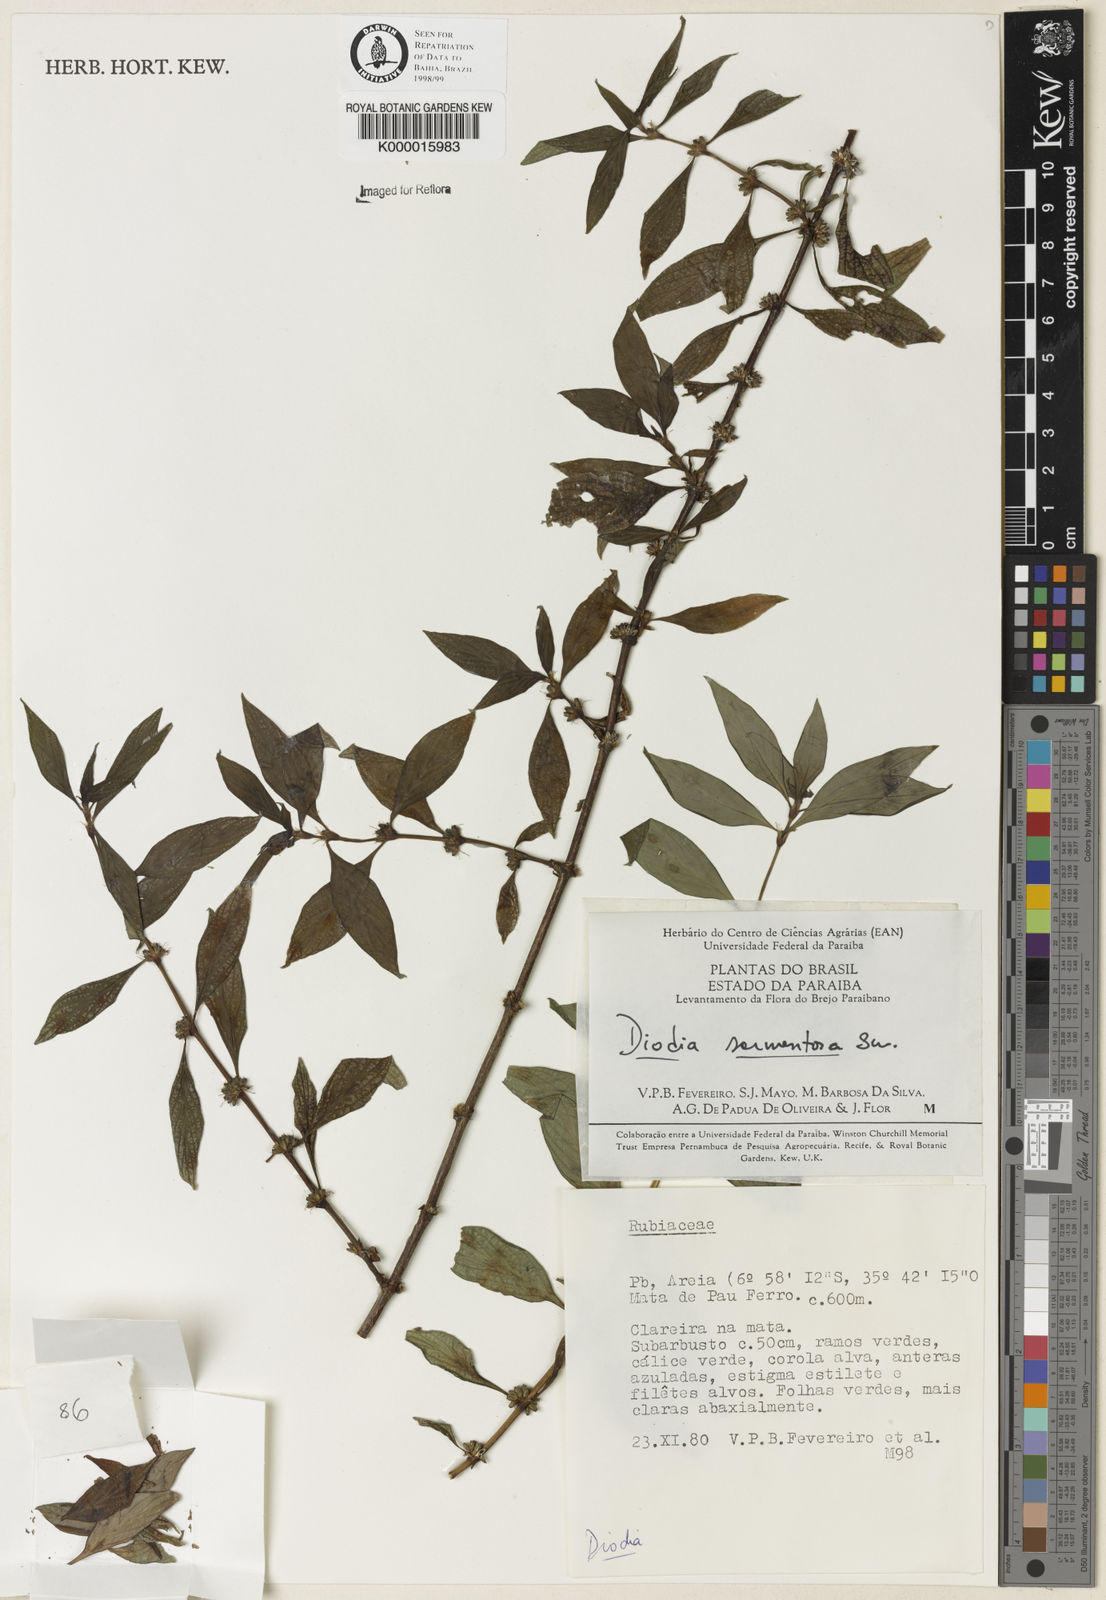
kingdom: Plantae
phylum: Tracheophyta
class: Magnoliopsida
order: Gentianales
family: Rubiaceae
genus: Hexasepalum
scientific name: Hexasepalum sarmentosum
